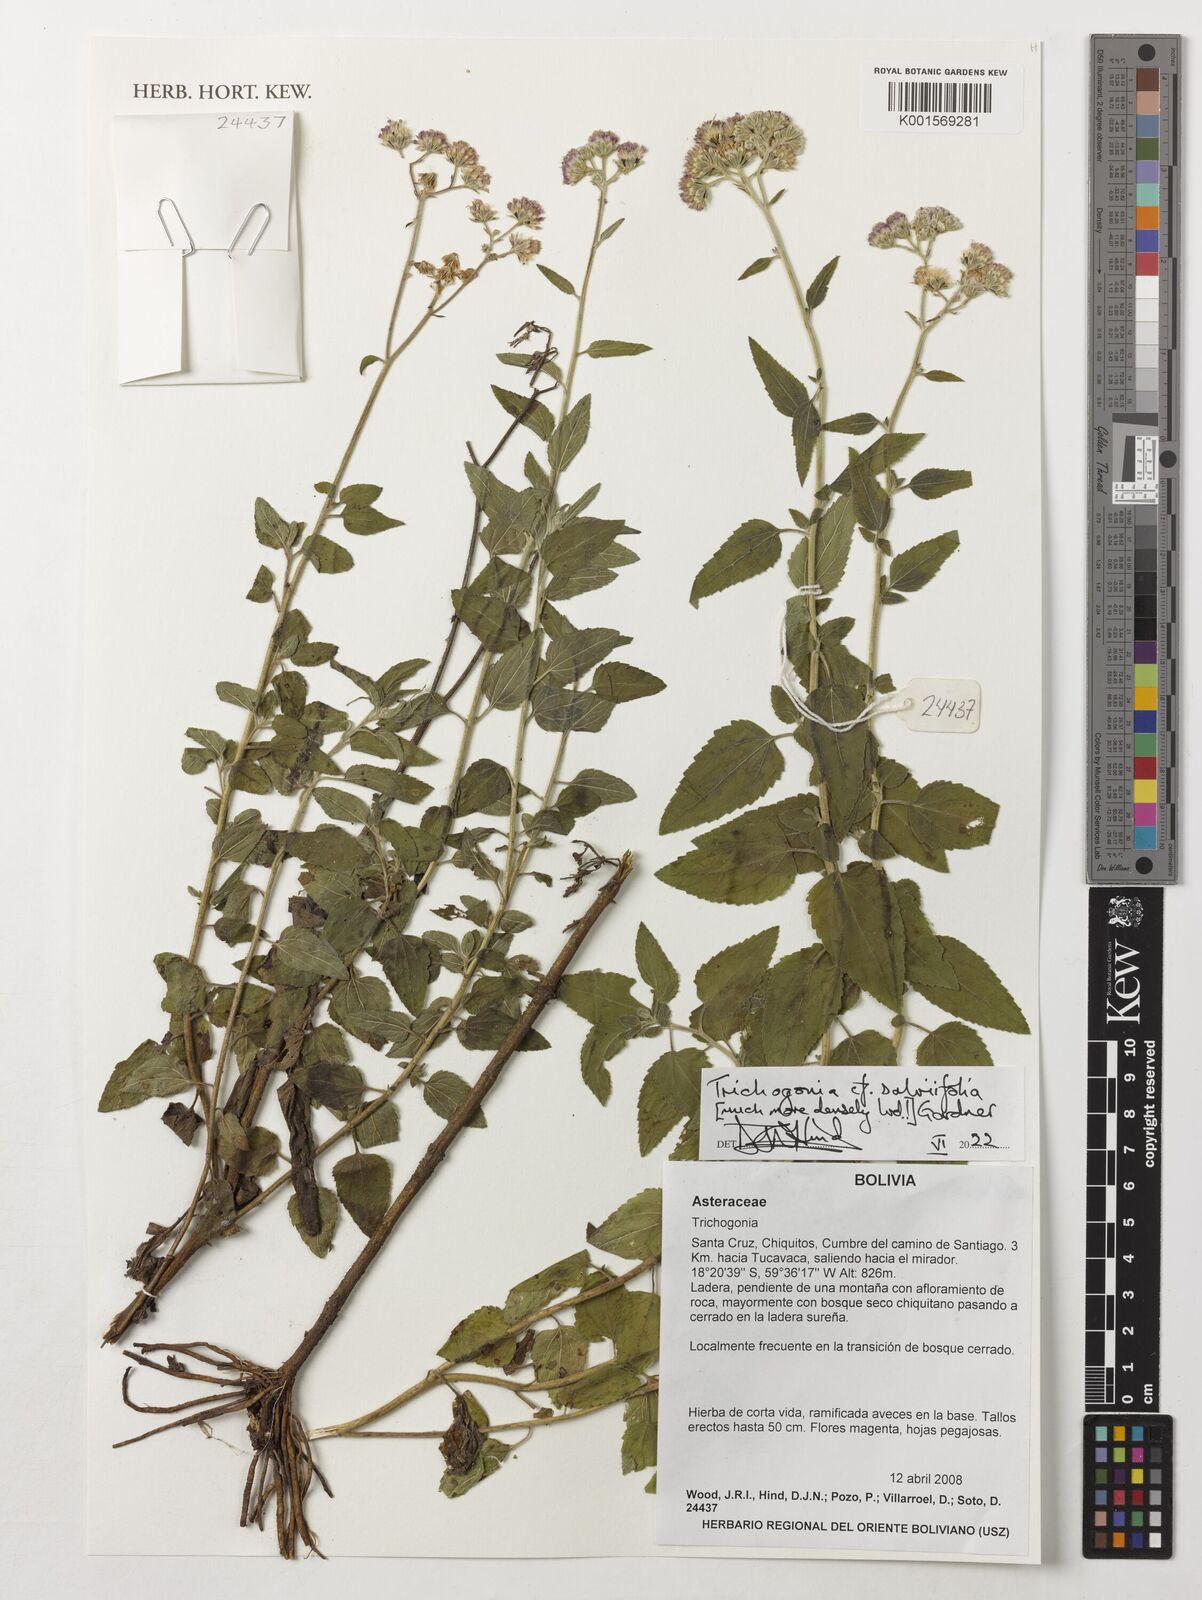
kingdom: Plantae
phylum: Tracheophyta
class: Magnoliopsida
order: Asterales
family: Asteraceae
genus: Trichogonia
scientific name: Trichogonia salviifolia
